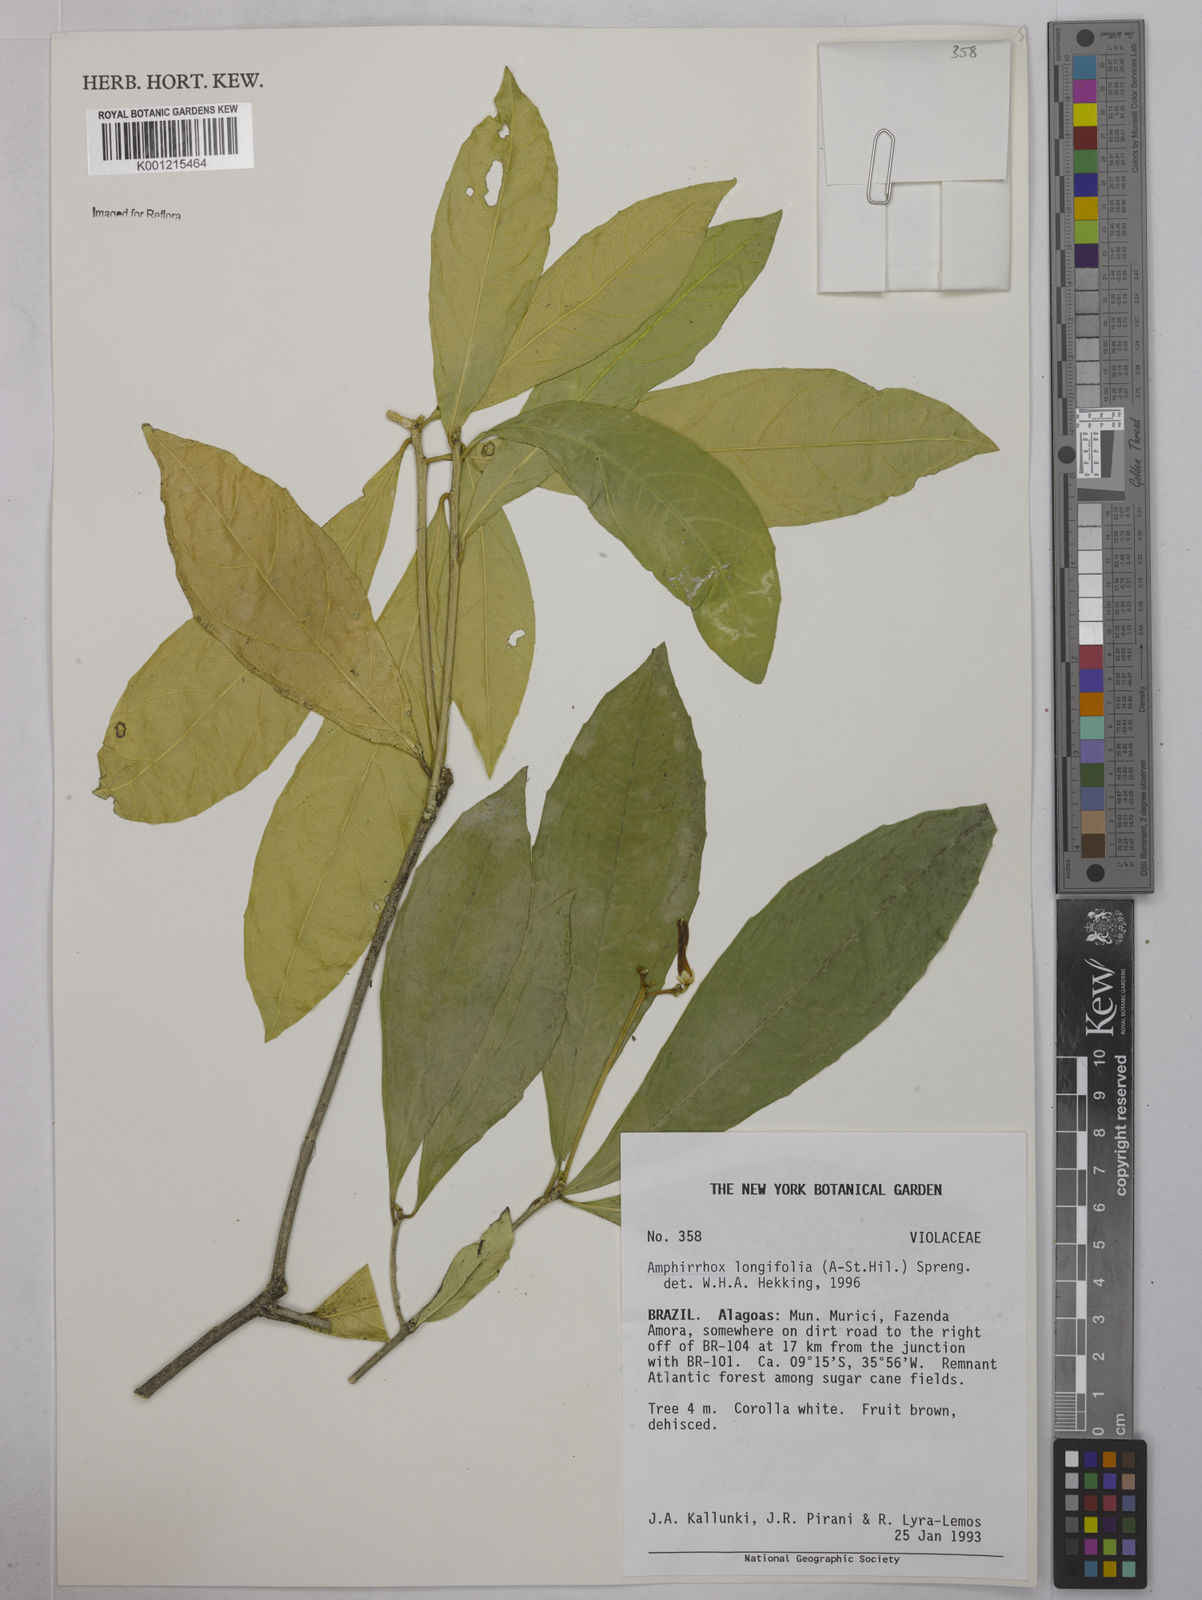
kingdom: Plantae
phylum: Tracheophyta
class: Magnoliopsida
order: Malpighiales
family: Violaceae
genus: Amphirrhox
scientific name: Amphirrhox longifolia
